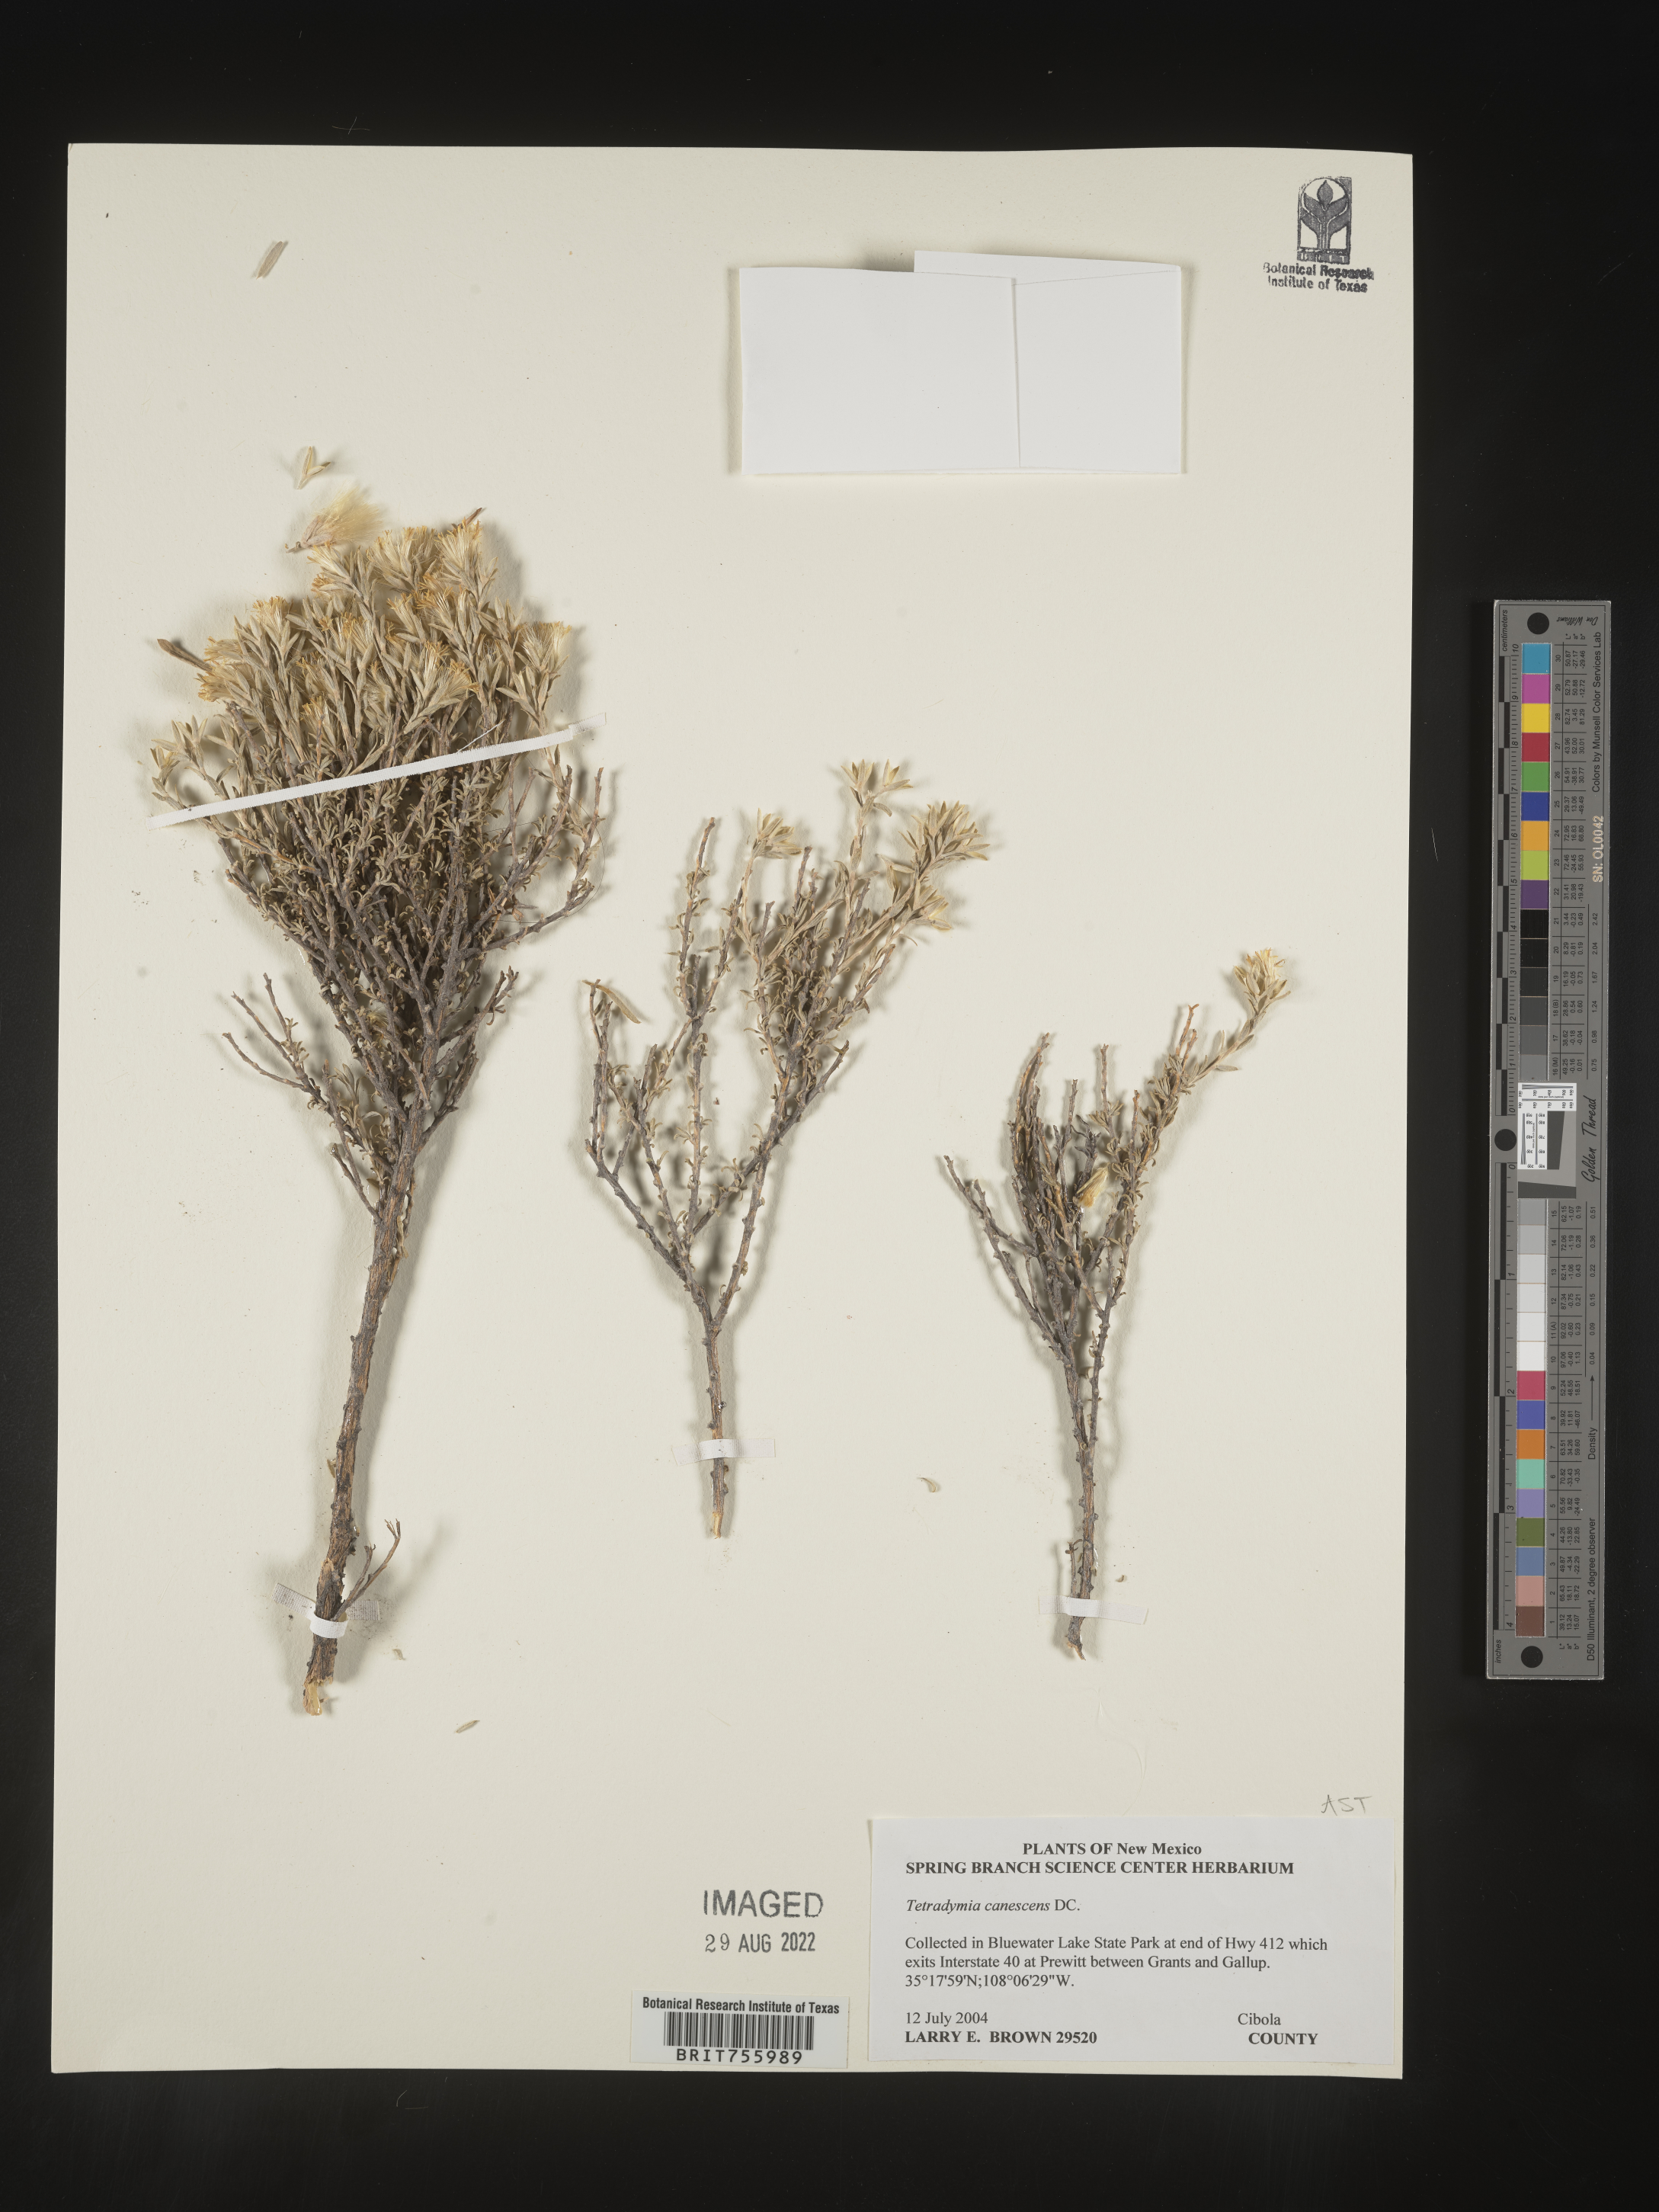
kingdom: Plantae
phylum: Tracheophyta
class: Magnoliopsida
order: Asterales
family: Asteraceae
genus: Tetradymia
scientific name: Tetradymia canescens
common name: Spineless horsebrush
